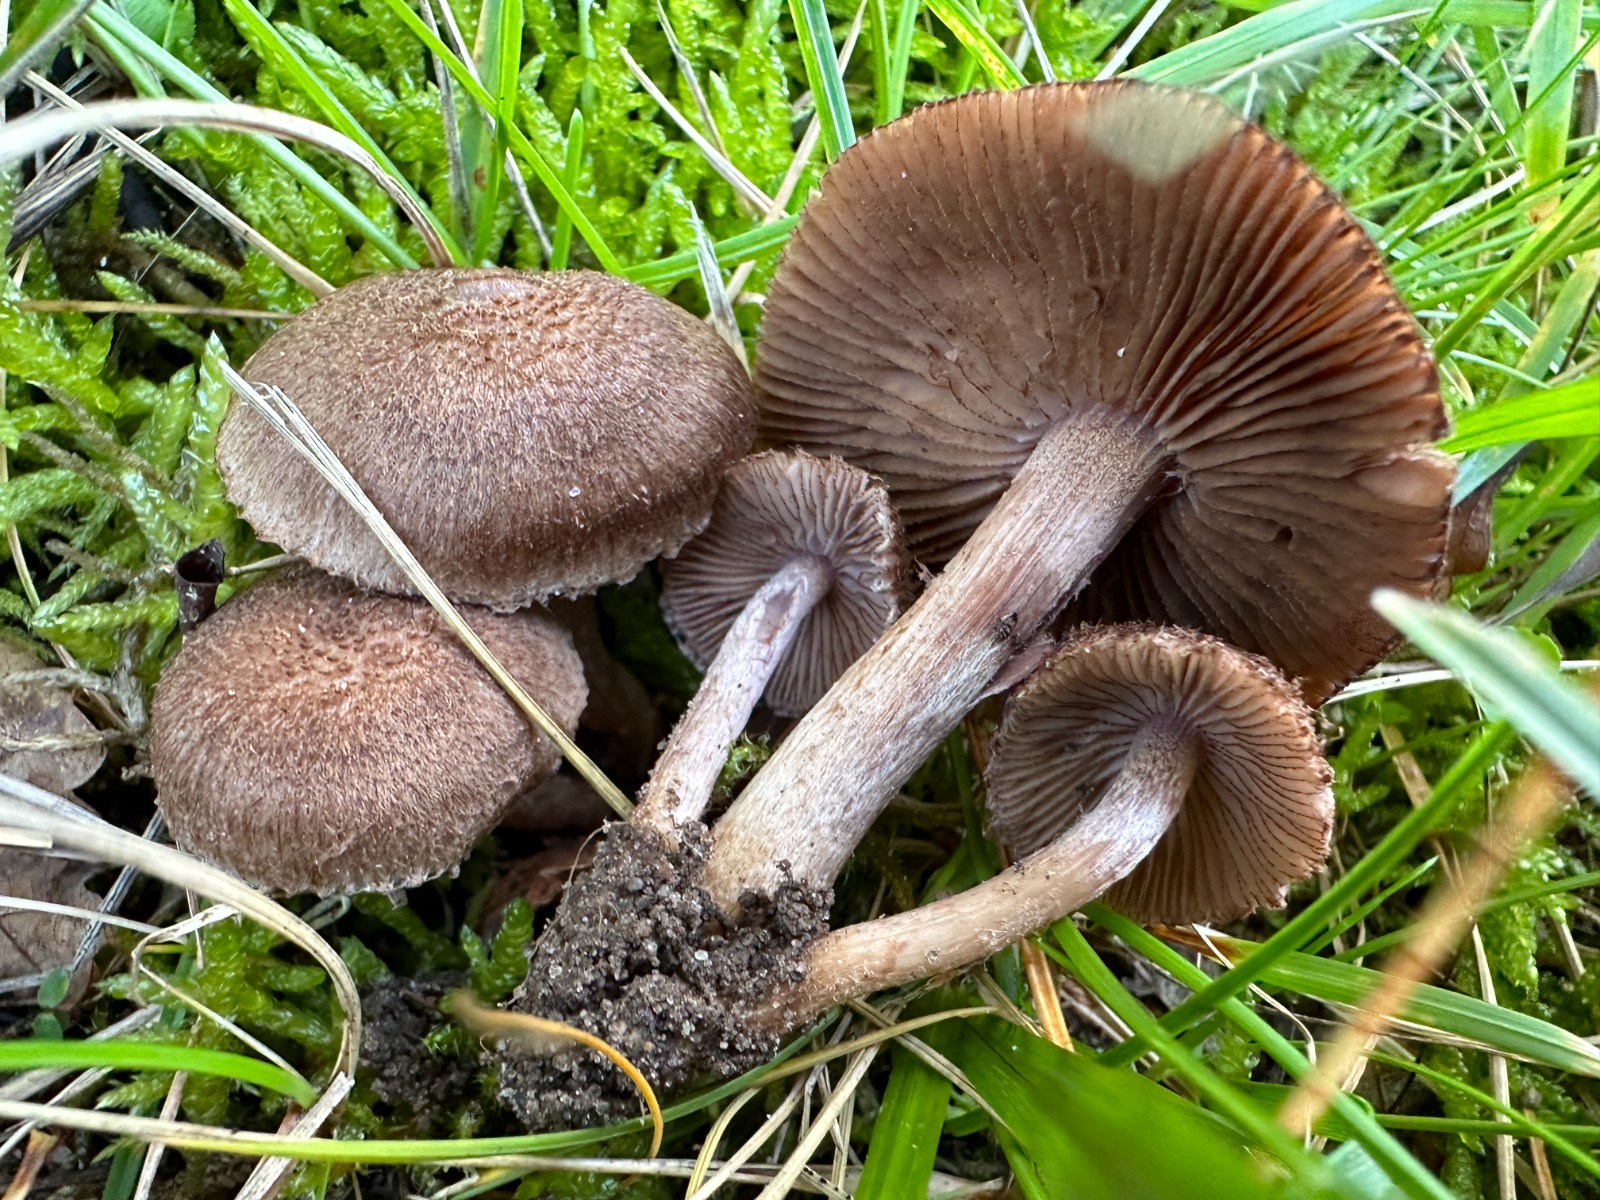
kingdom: Fungi
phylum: Basidiomycota
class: Agaricomycetes
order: Agaricales
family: Inocybaceae
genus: Inocybe
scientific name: Inocybe cincinnata
